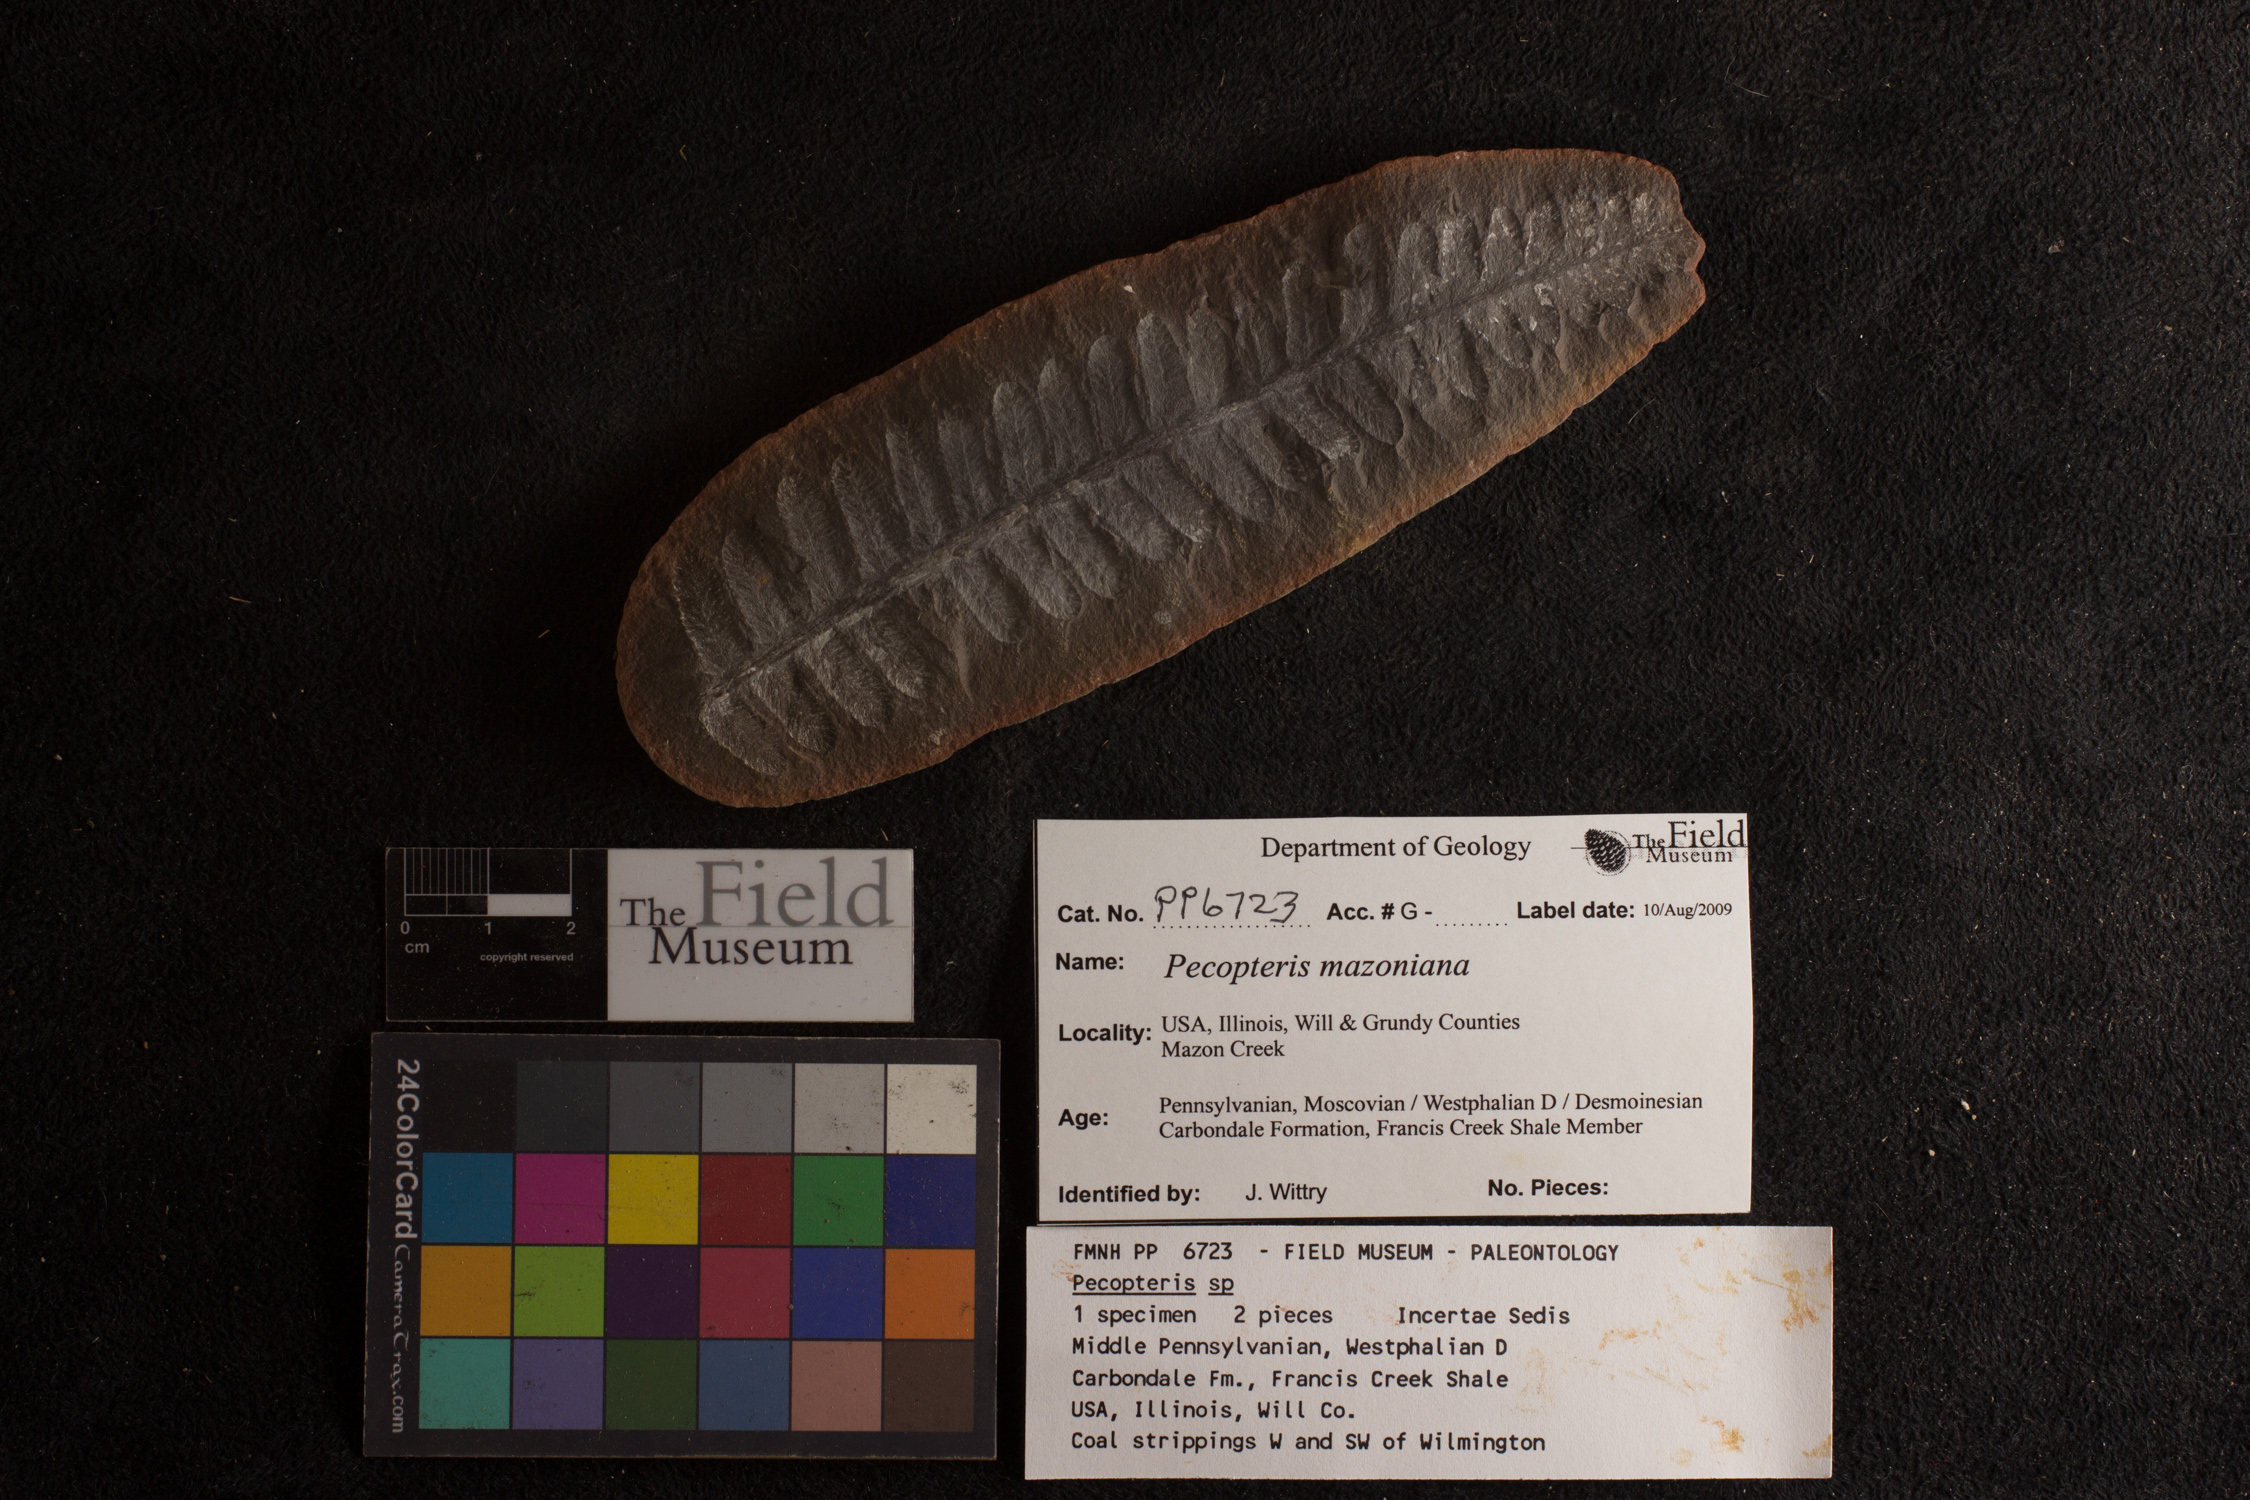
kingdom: Plantae
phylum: Tracheophyta
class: Polypodiopsida
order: Marattiales
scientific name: Marattiales
